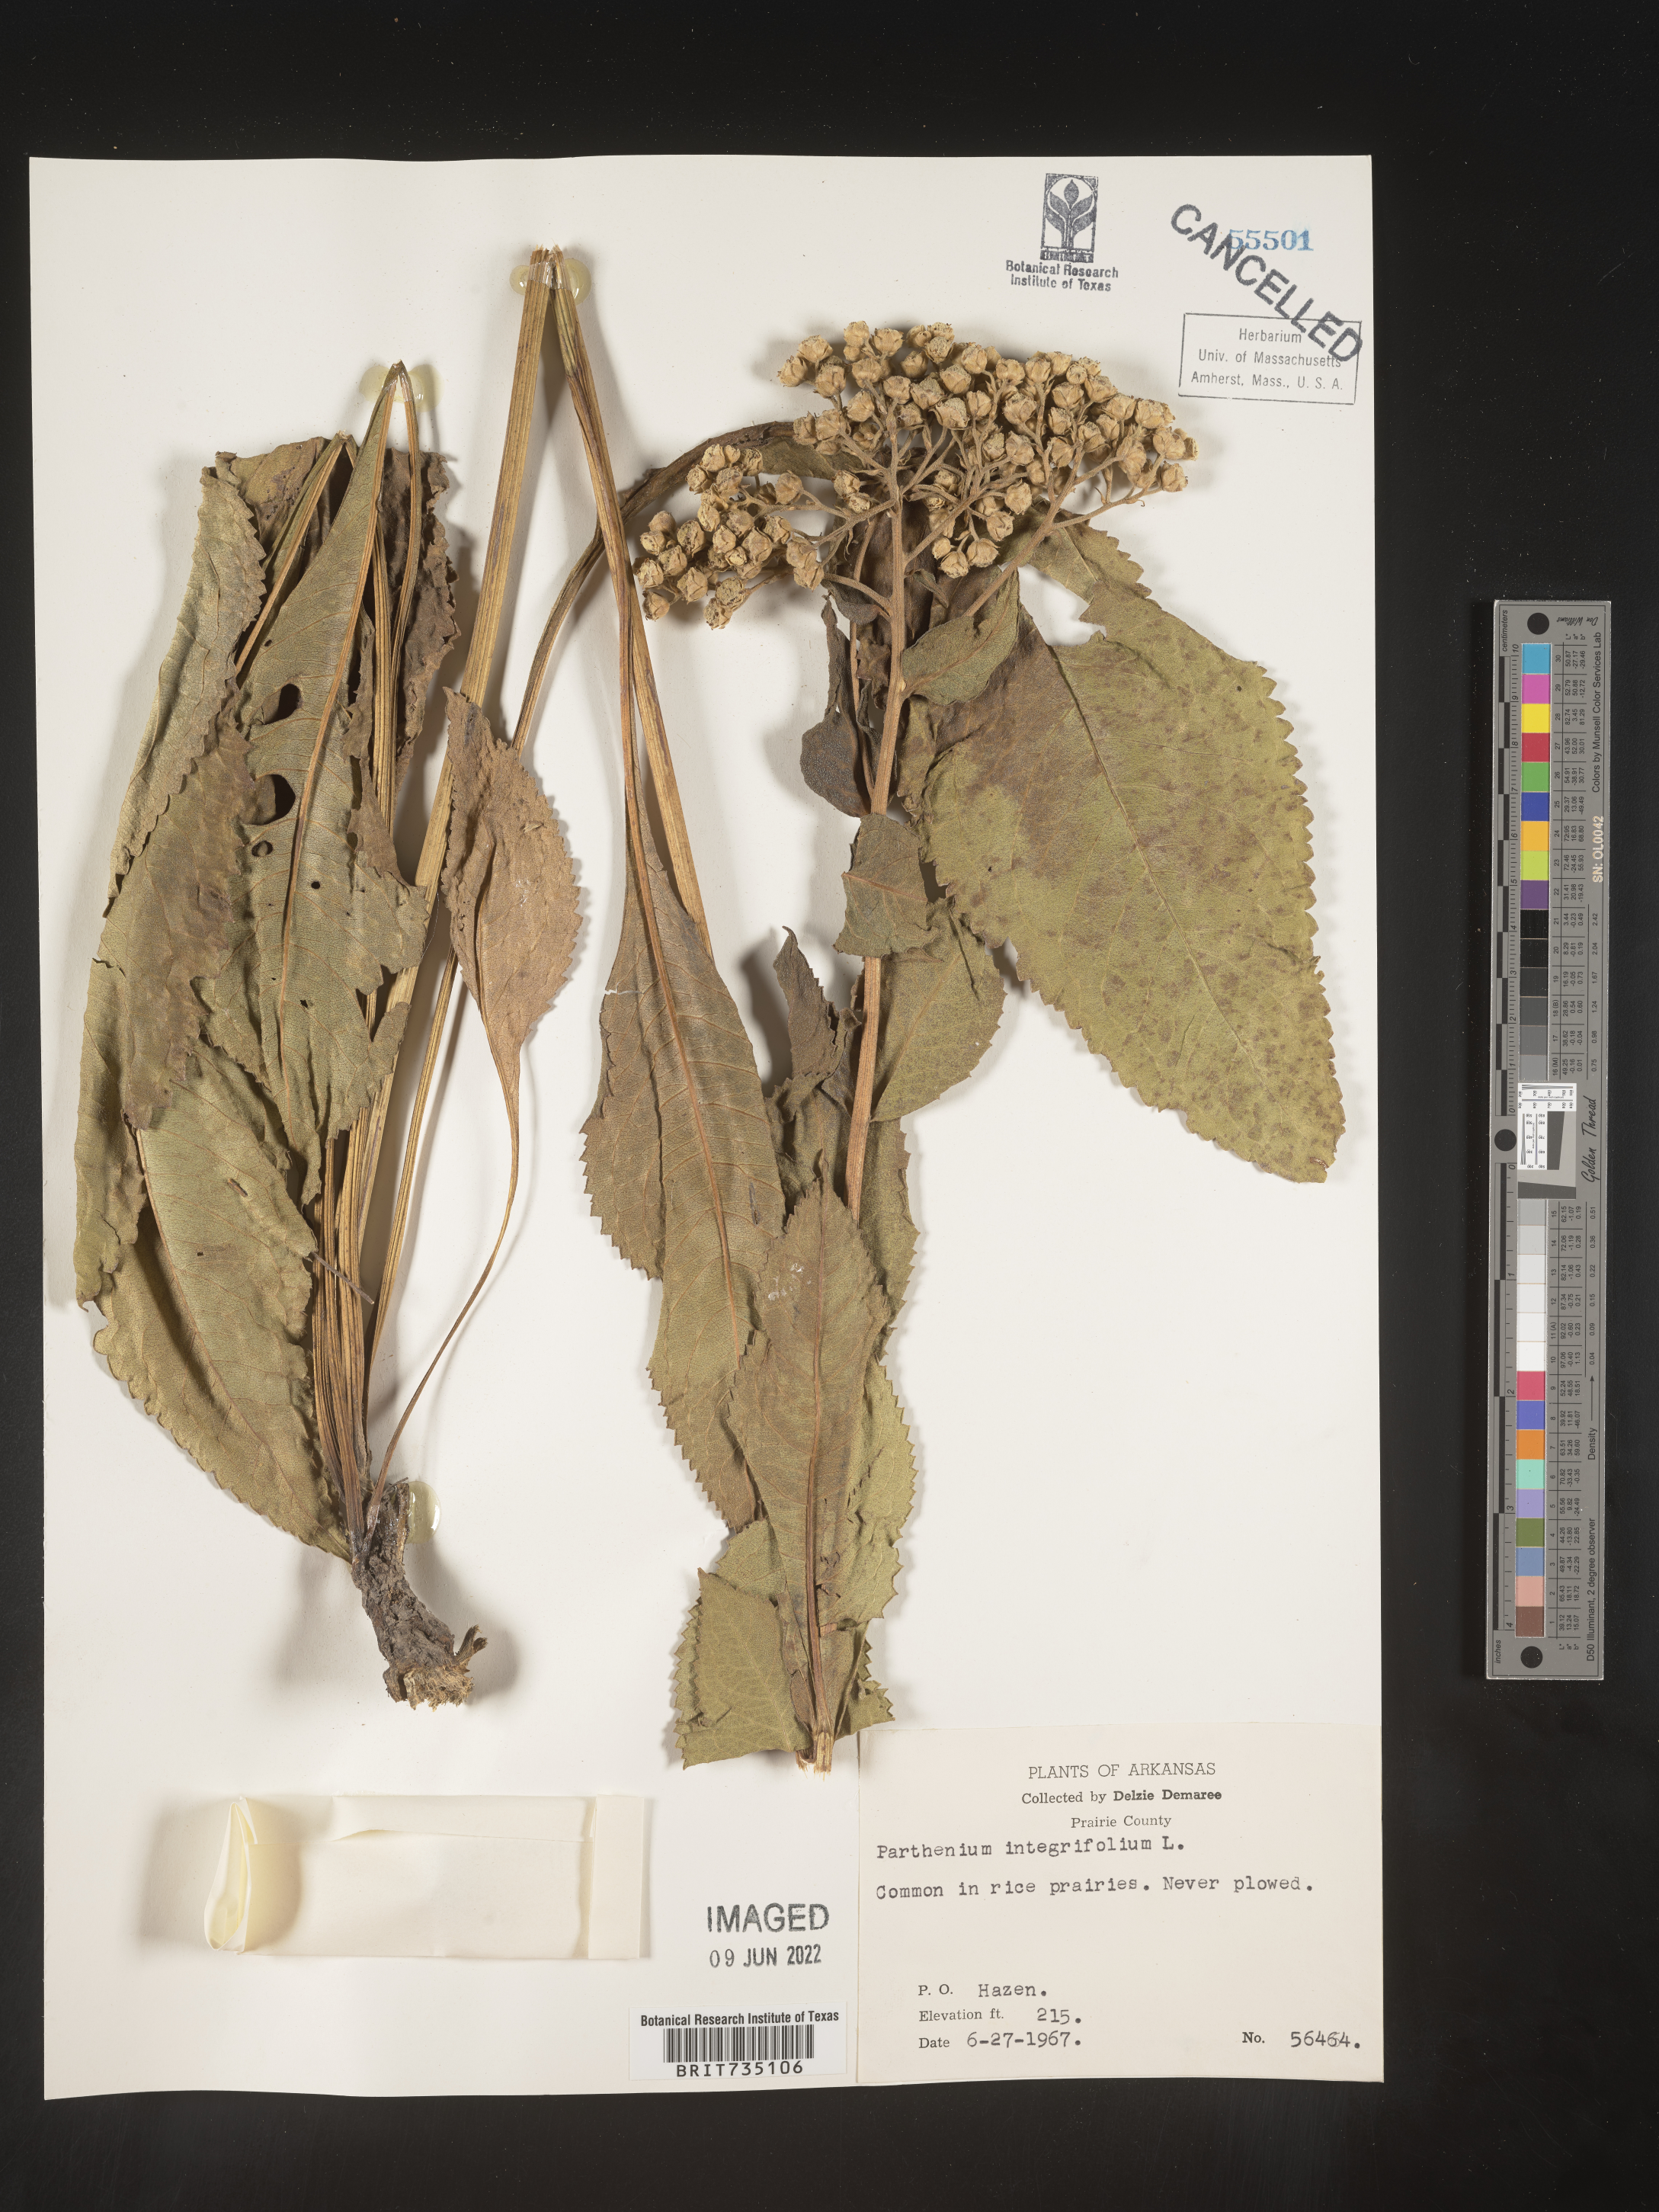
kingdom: Plantae
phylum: Tracheophyta
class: Magnoliopsida
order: Asterales
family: Asteraceae
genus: Parthenium
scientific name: Parthenium integrifolium
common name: American feverfew
